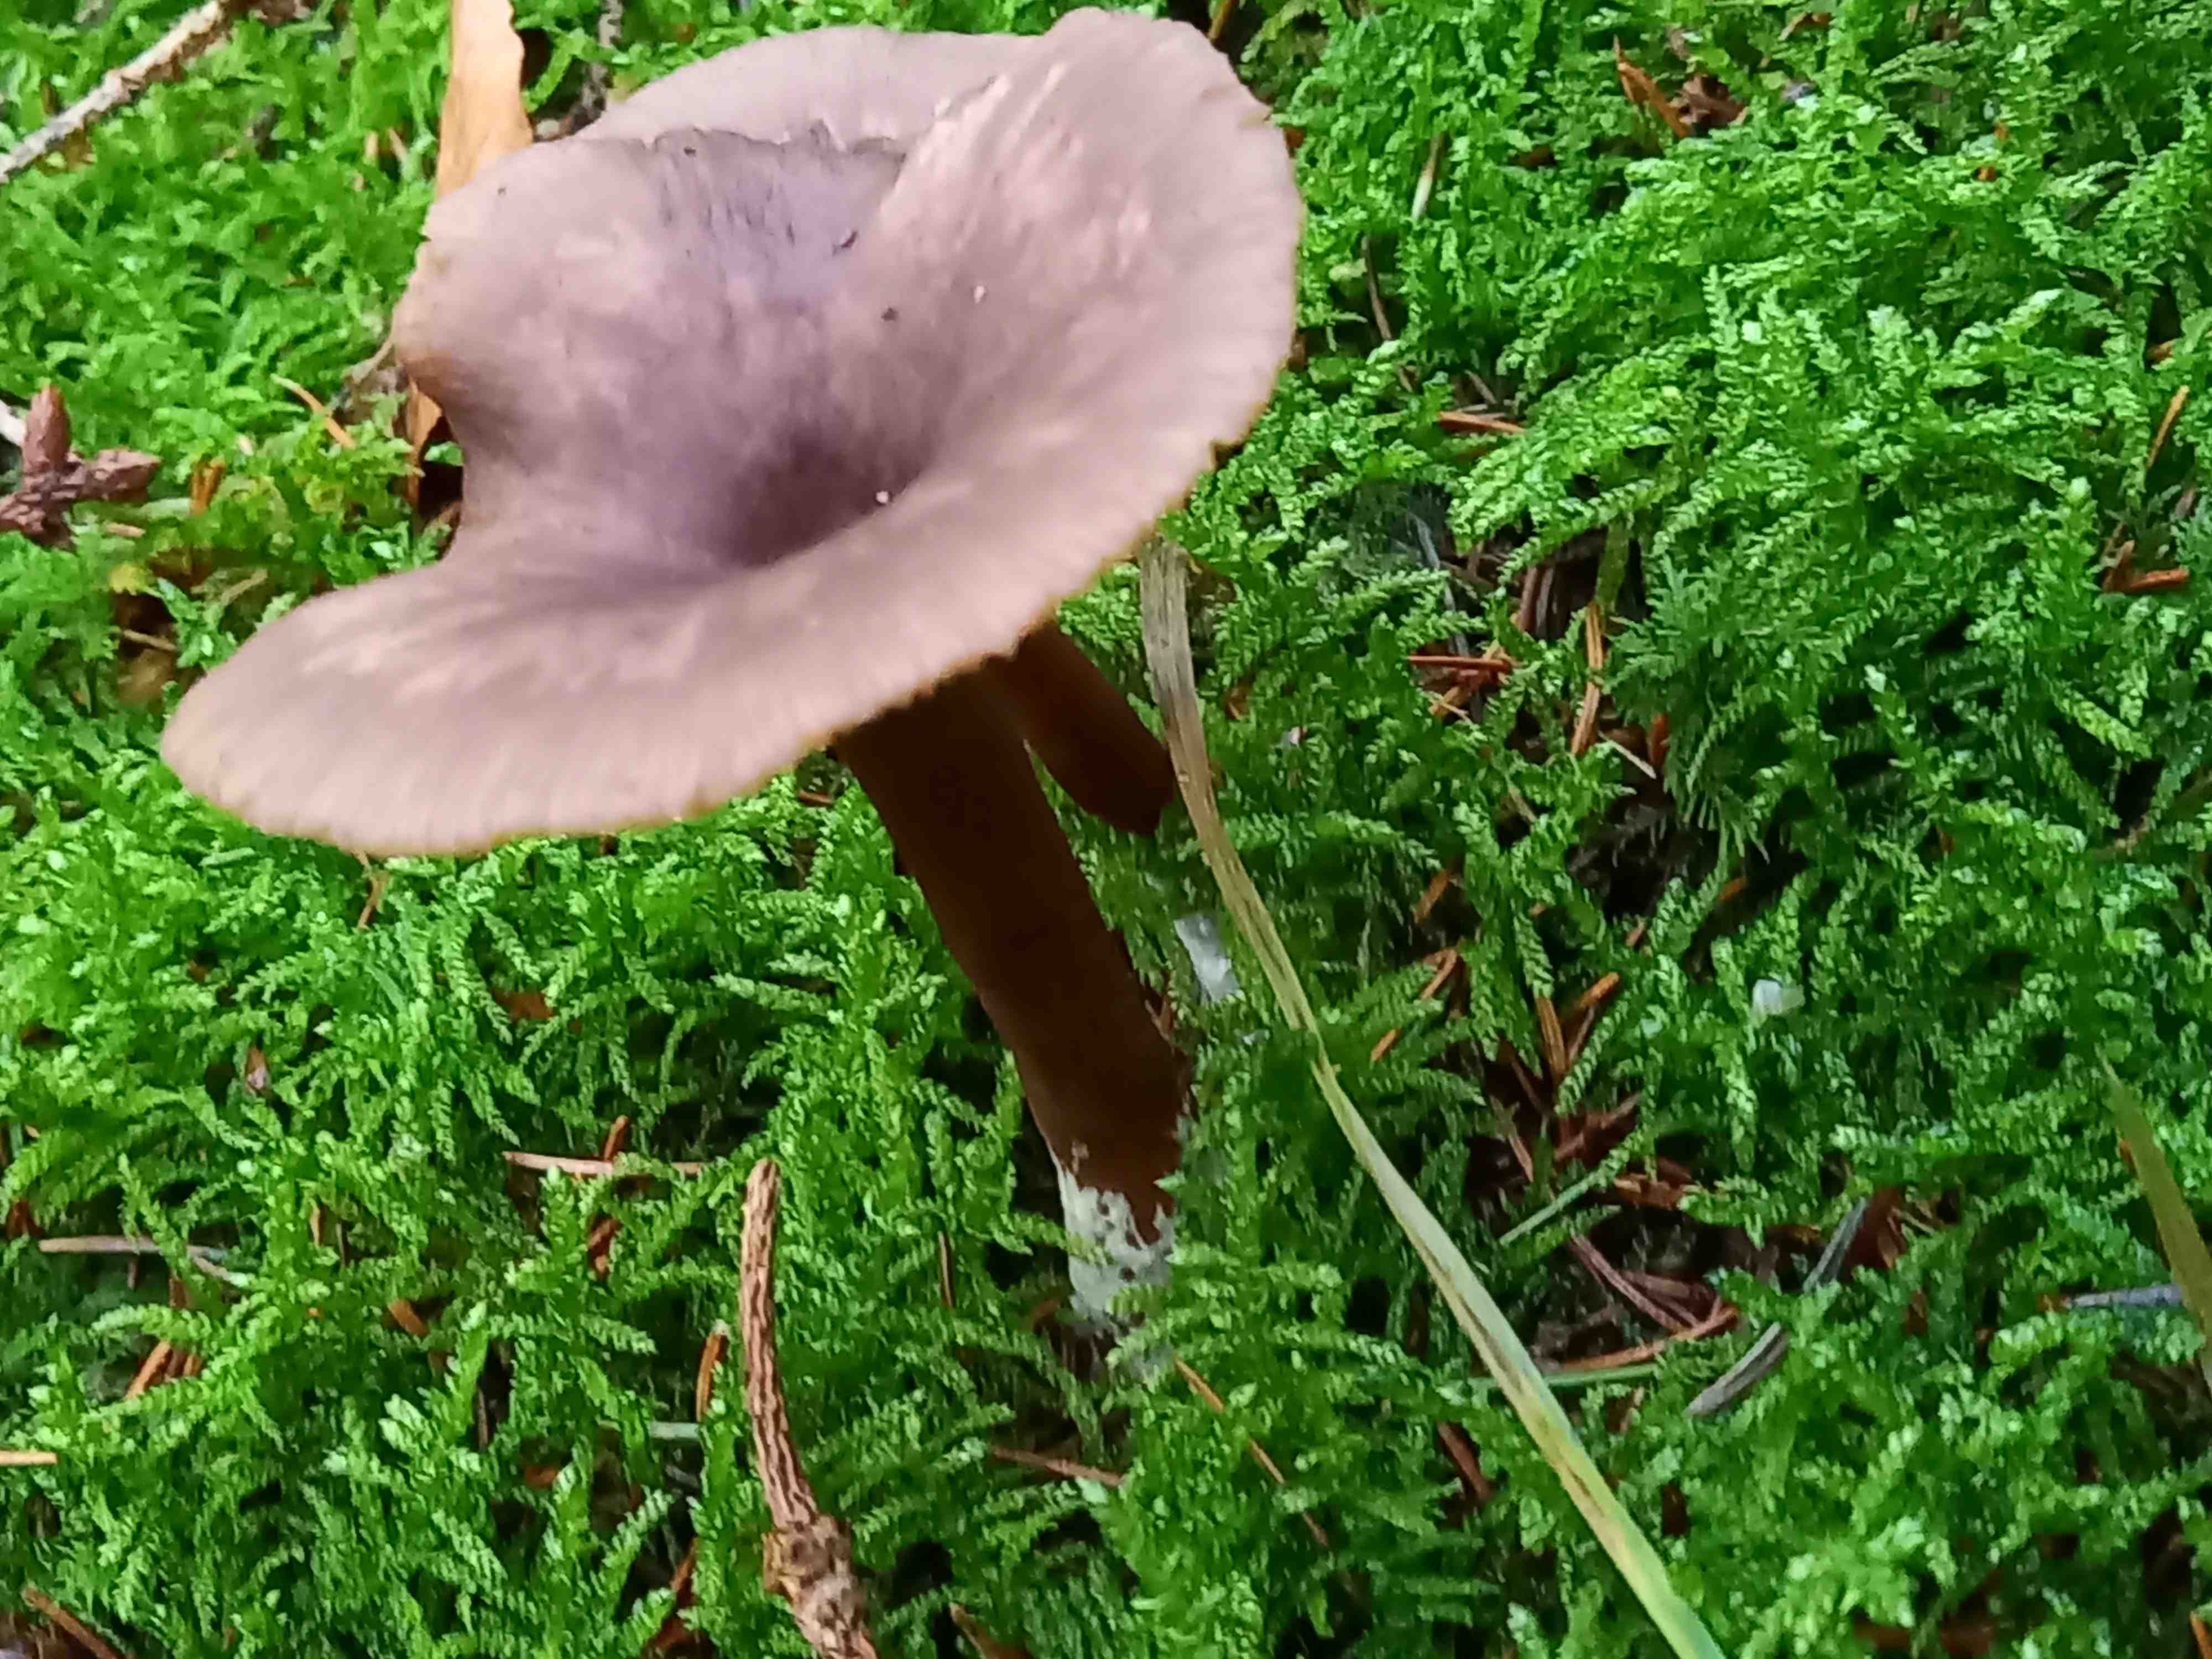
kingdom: Fungi
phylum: Basidiomycota
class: Agaricomycetes
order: Agaricales
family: Pseudoclitocybaceae
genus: Pseudoclitocybe
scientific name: Pseudoclitocybe cyathiformis
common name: almindelig bægertragthat
